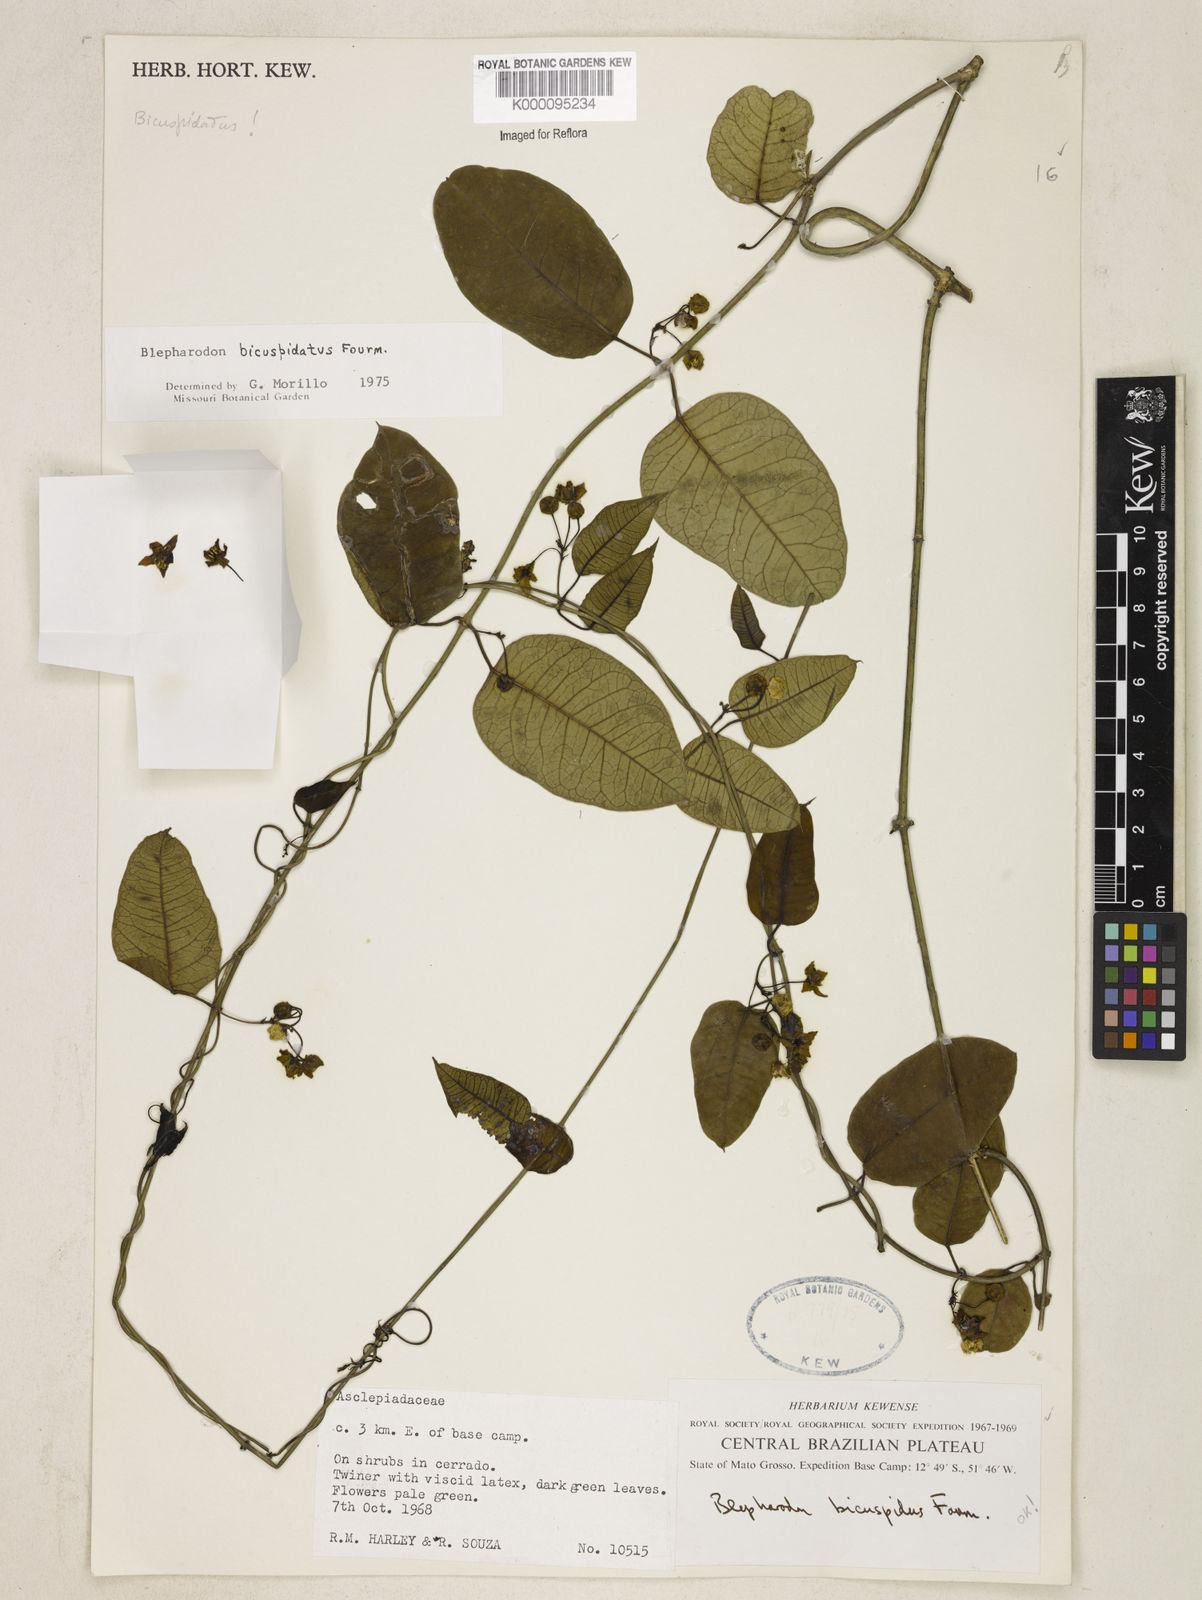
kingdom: Plantae
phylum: Tracheophyta
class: Magnoliopsida
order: Gentianales
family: Apocynaceae
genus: Blepharodon
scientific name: Blepharodon bicuspidatum
